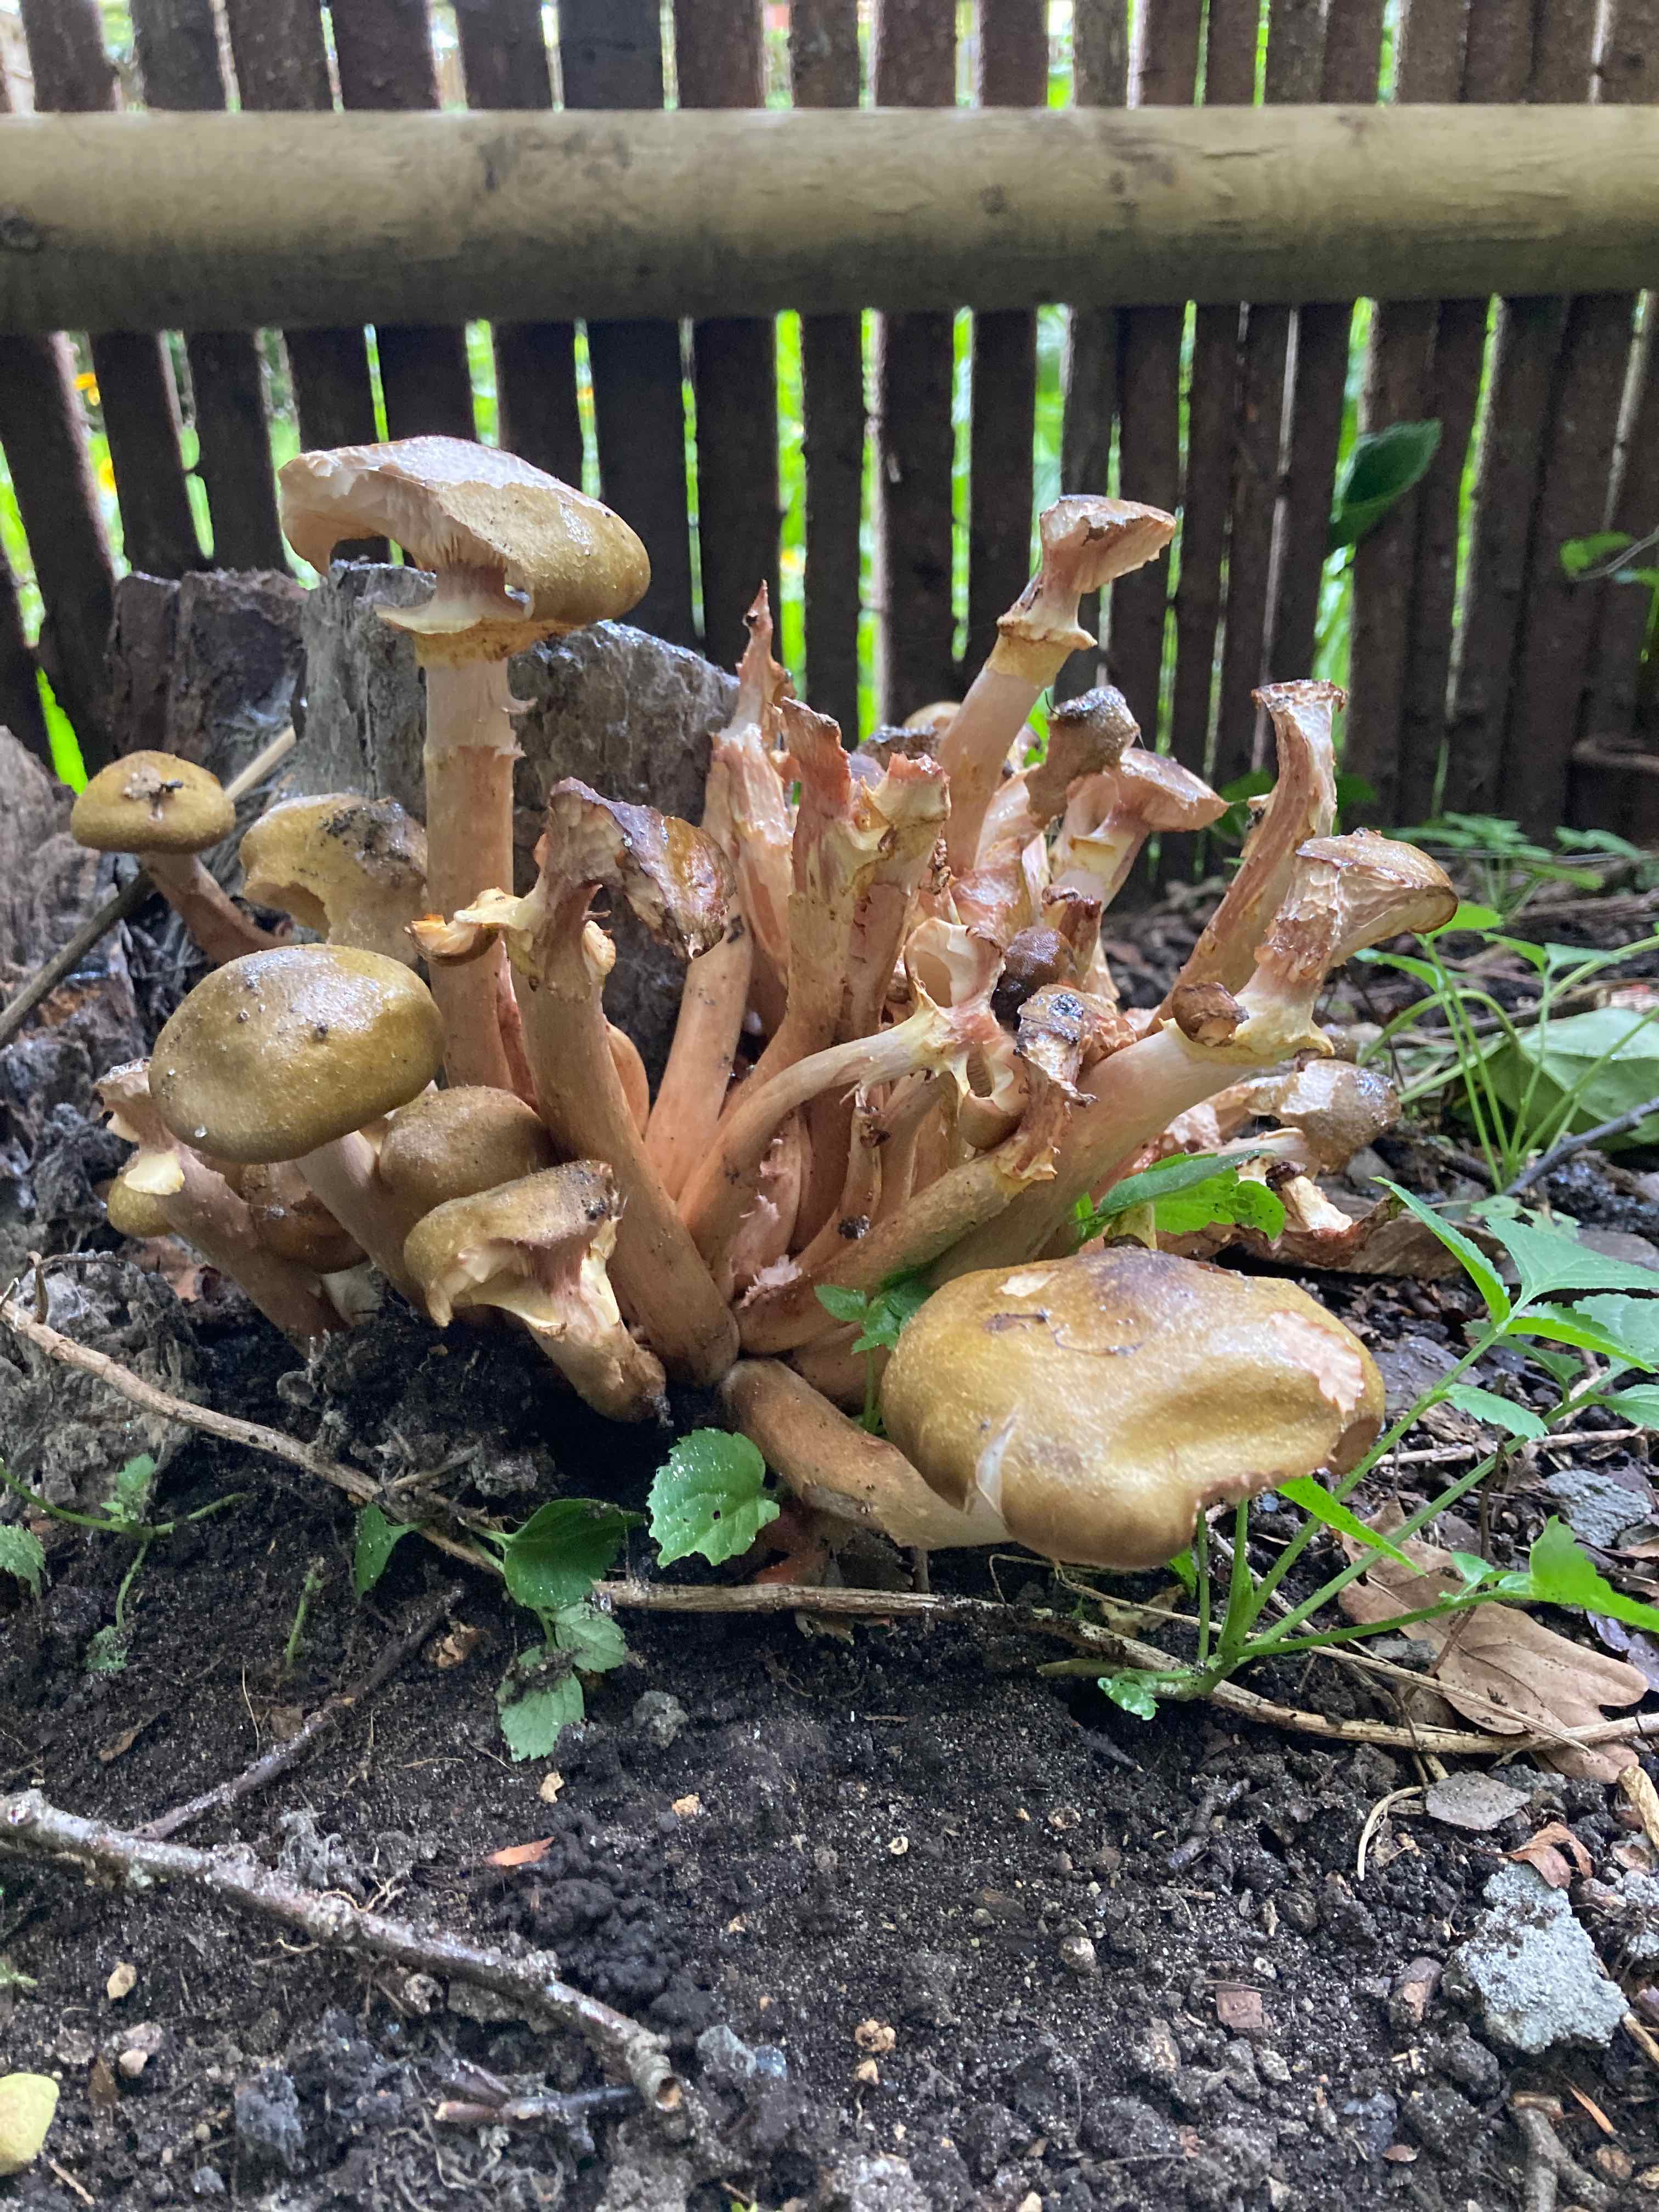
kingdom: Fungi
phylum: Basidiomycota
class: Agaricomycetes
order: Agaricales
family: Physalacriaceae
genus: Armillaria
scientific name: Armillaria mellea
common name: ægte honningsvamp
